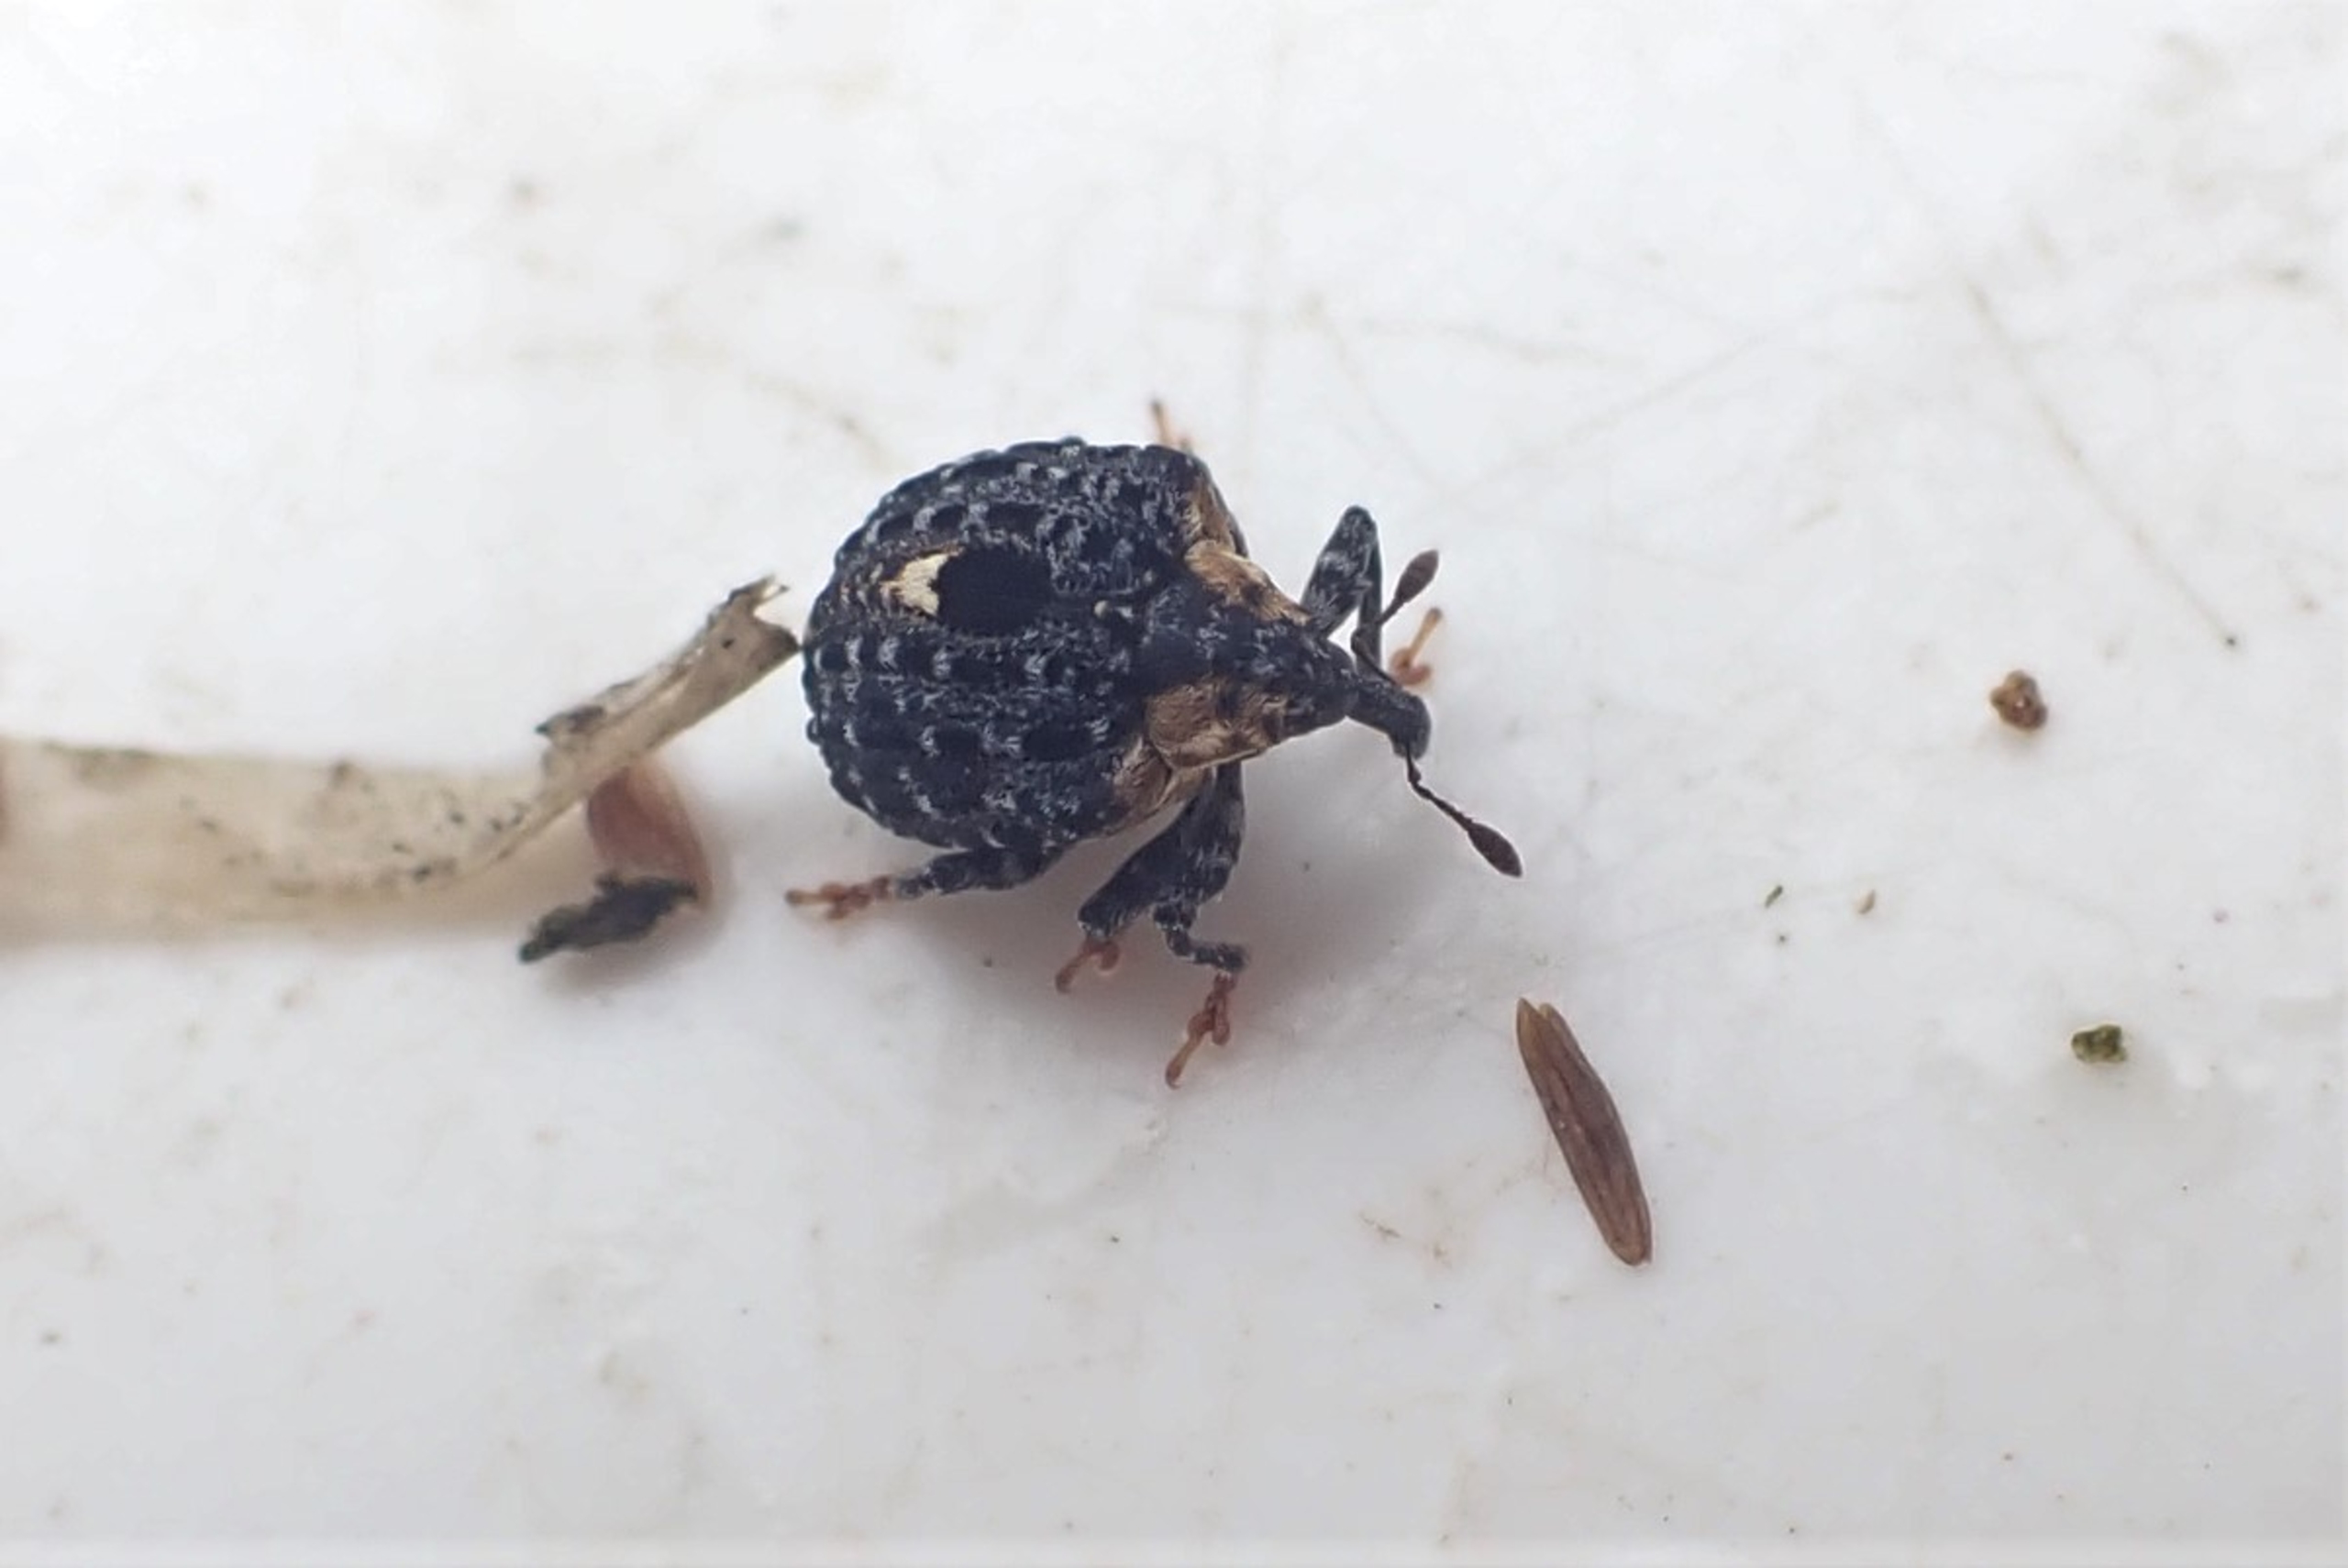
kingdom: Animalia
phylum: Arthropoda
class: Insecta
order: Coleoptera
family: Curculionidae
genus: Cionus
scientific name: Cionus tuberculosus
